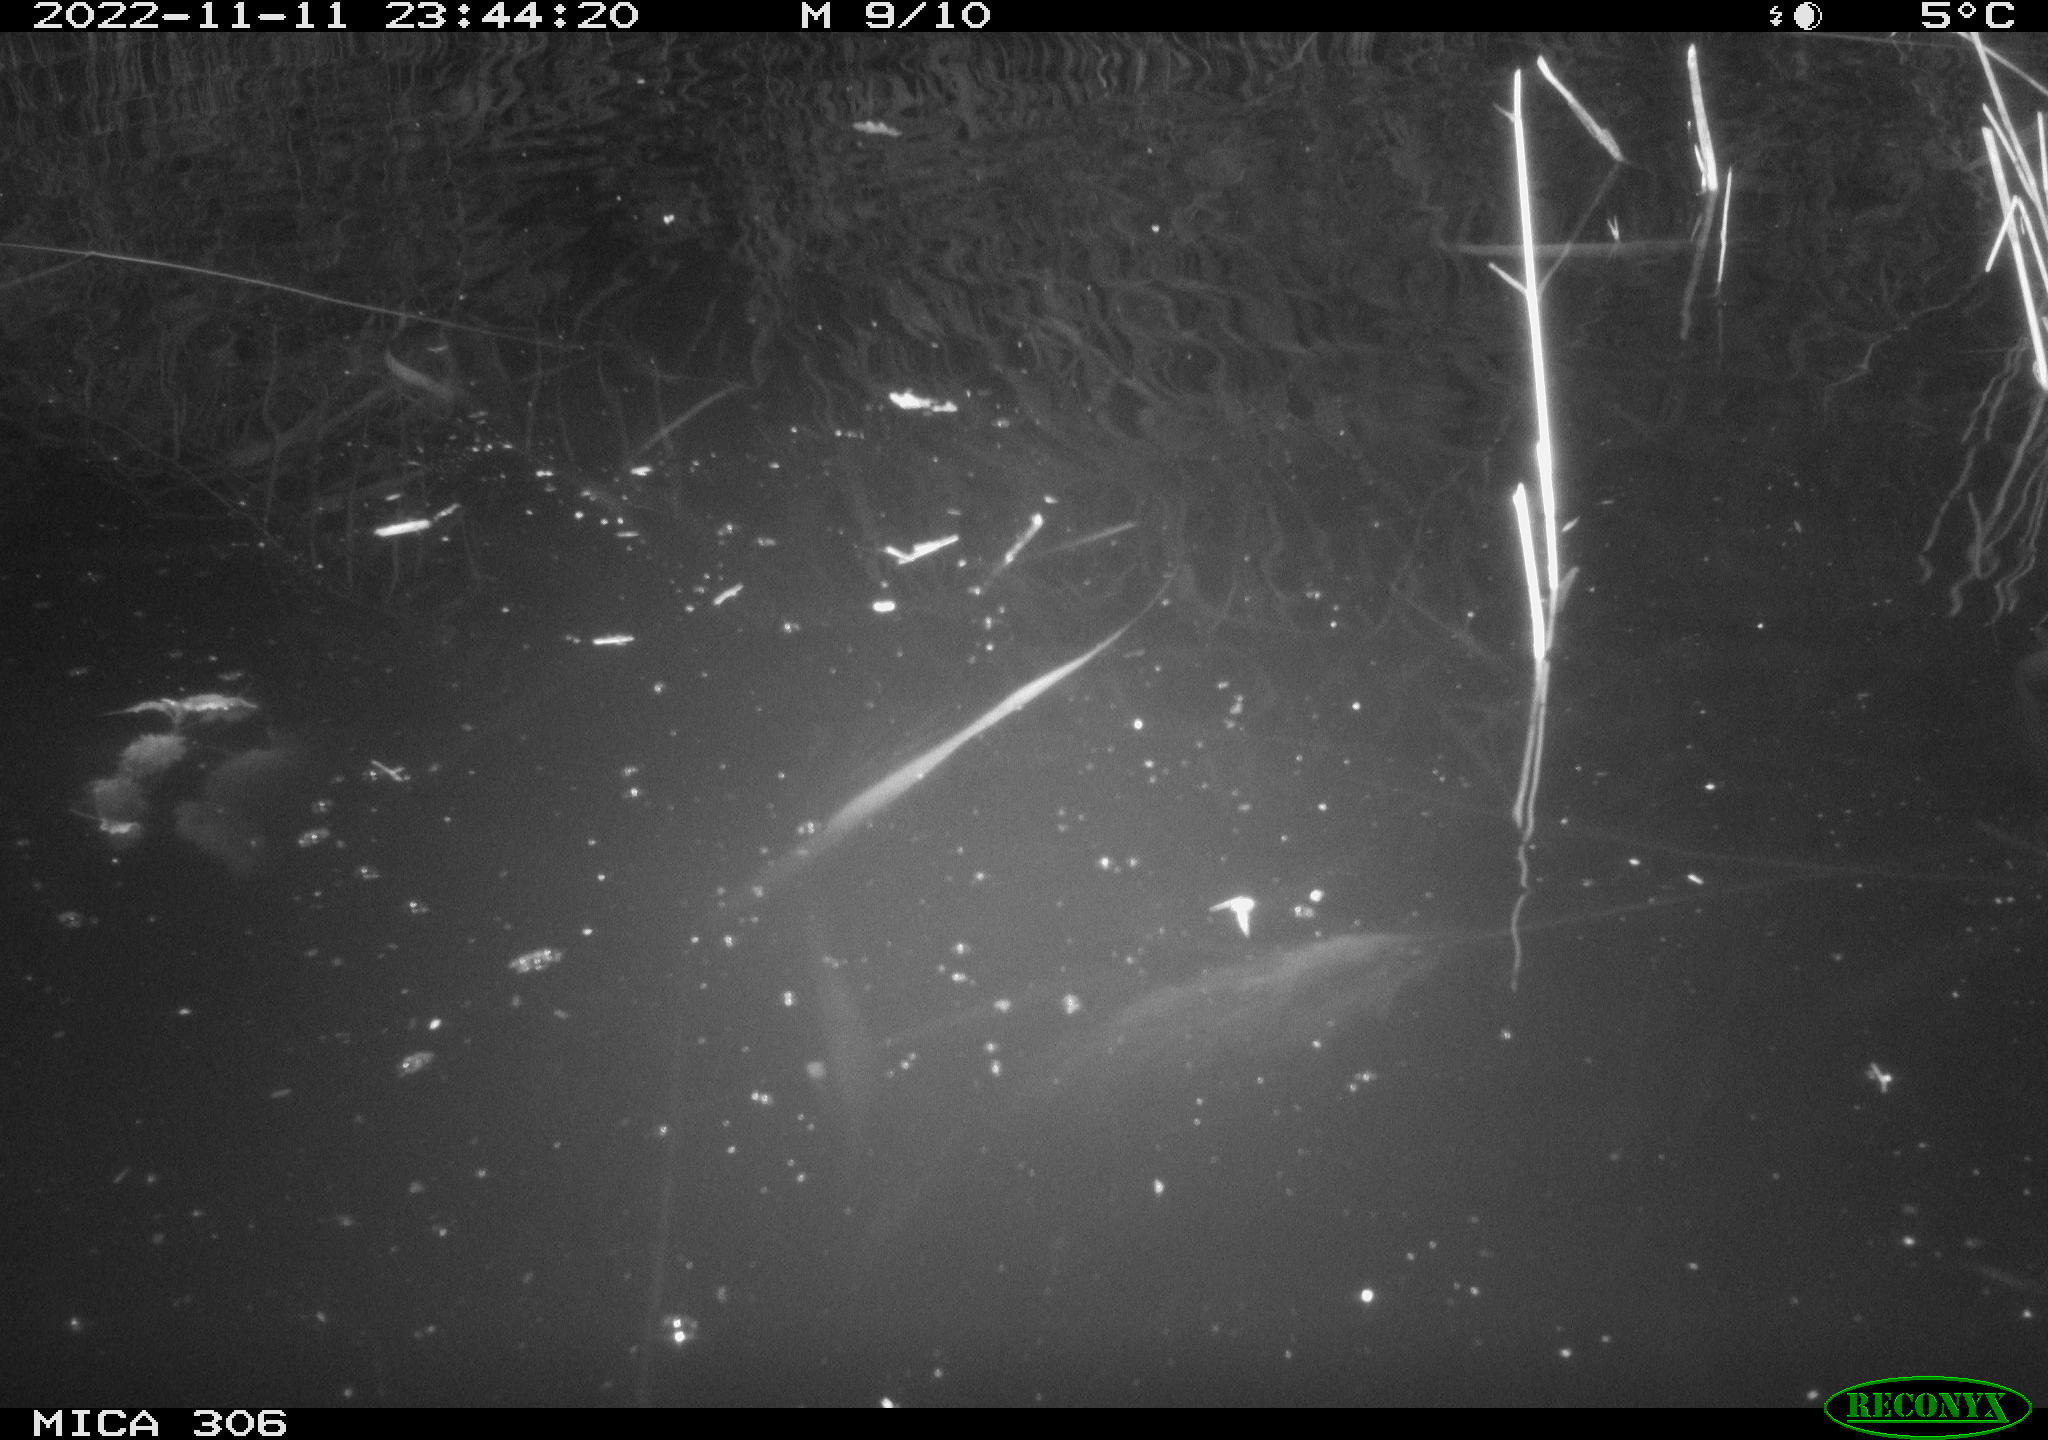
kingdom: Animalia
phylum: Chordata
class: Mammalia
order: Rodentia
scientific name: Rodentia
